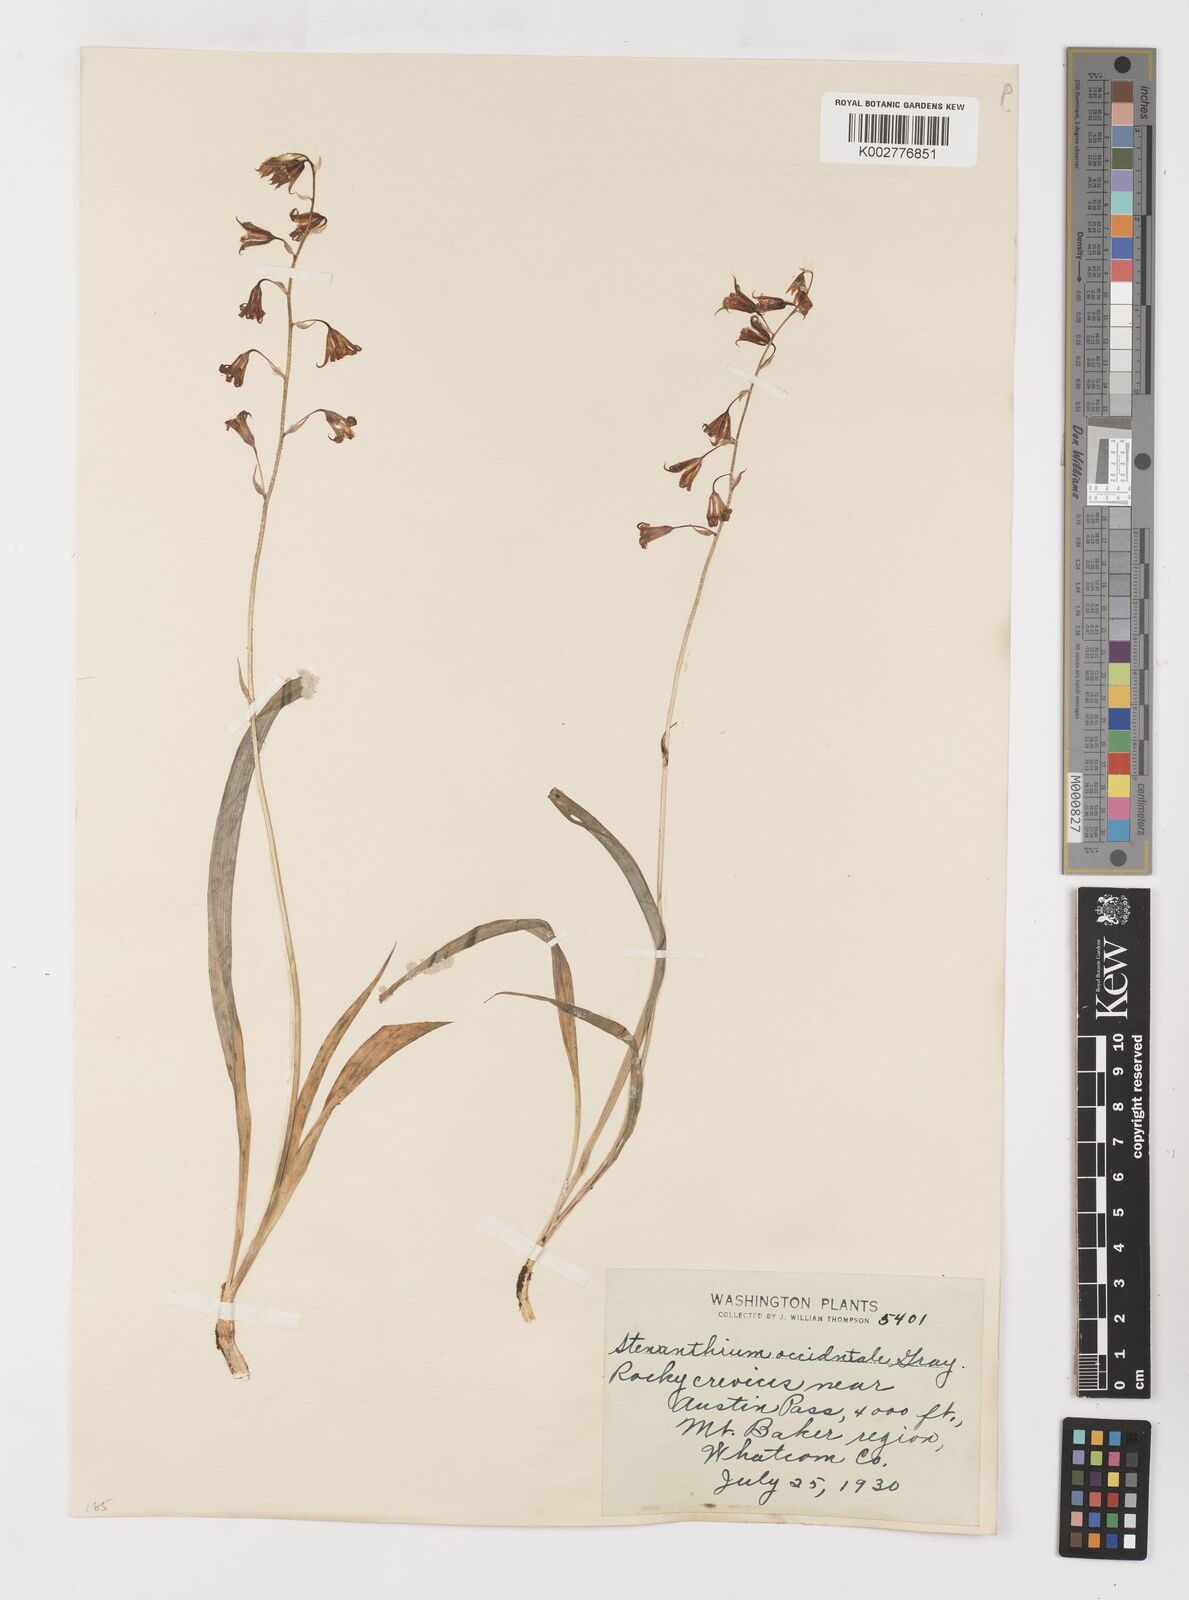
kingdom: Plantae
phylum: Tracheophyta
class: Liliopsida
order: Liliales
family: Melanthiaceae
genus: Anticlea
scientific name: Anticlea occidentalis
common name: Bronze-bells
